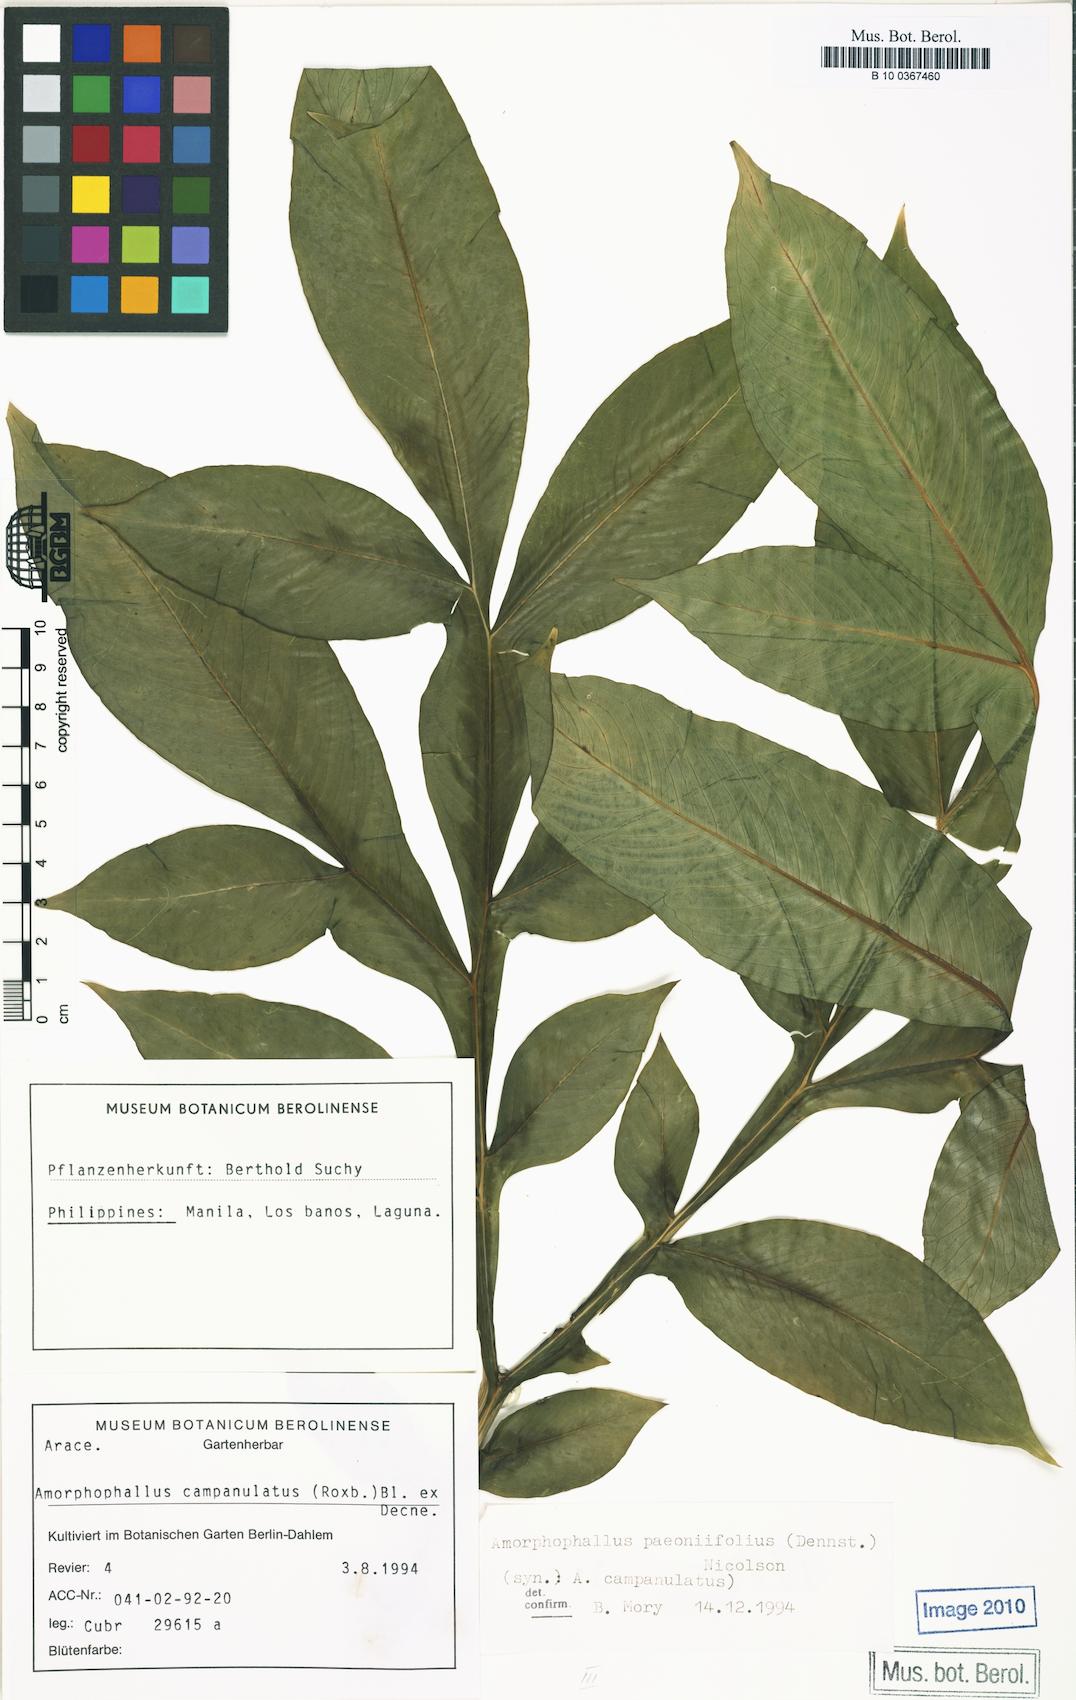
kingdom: Plantae
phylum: Tracheophyta
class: Liliopsida
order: Alismatales
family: Araceae
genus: Amorphophallus
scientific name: Amorphophallus paeoniifolius
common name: Telinga-potato
